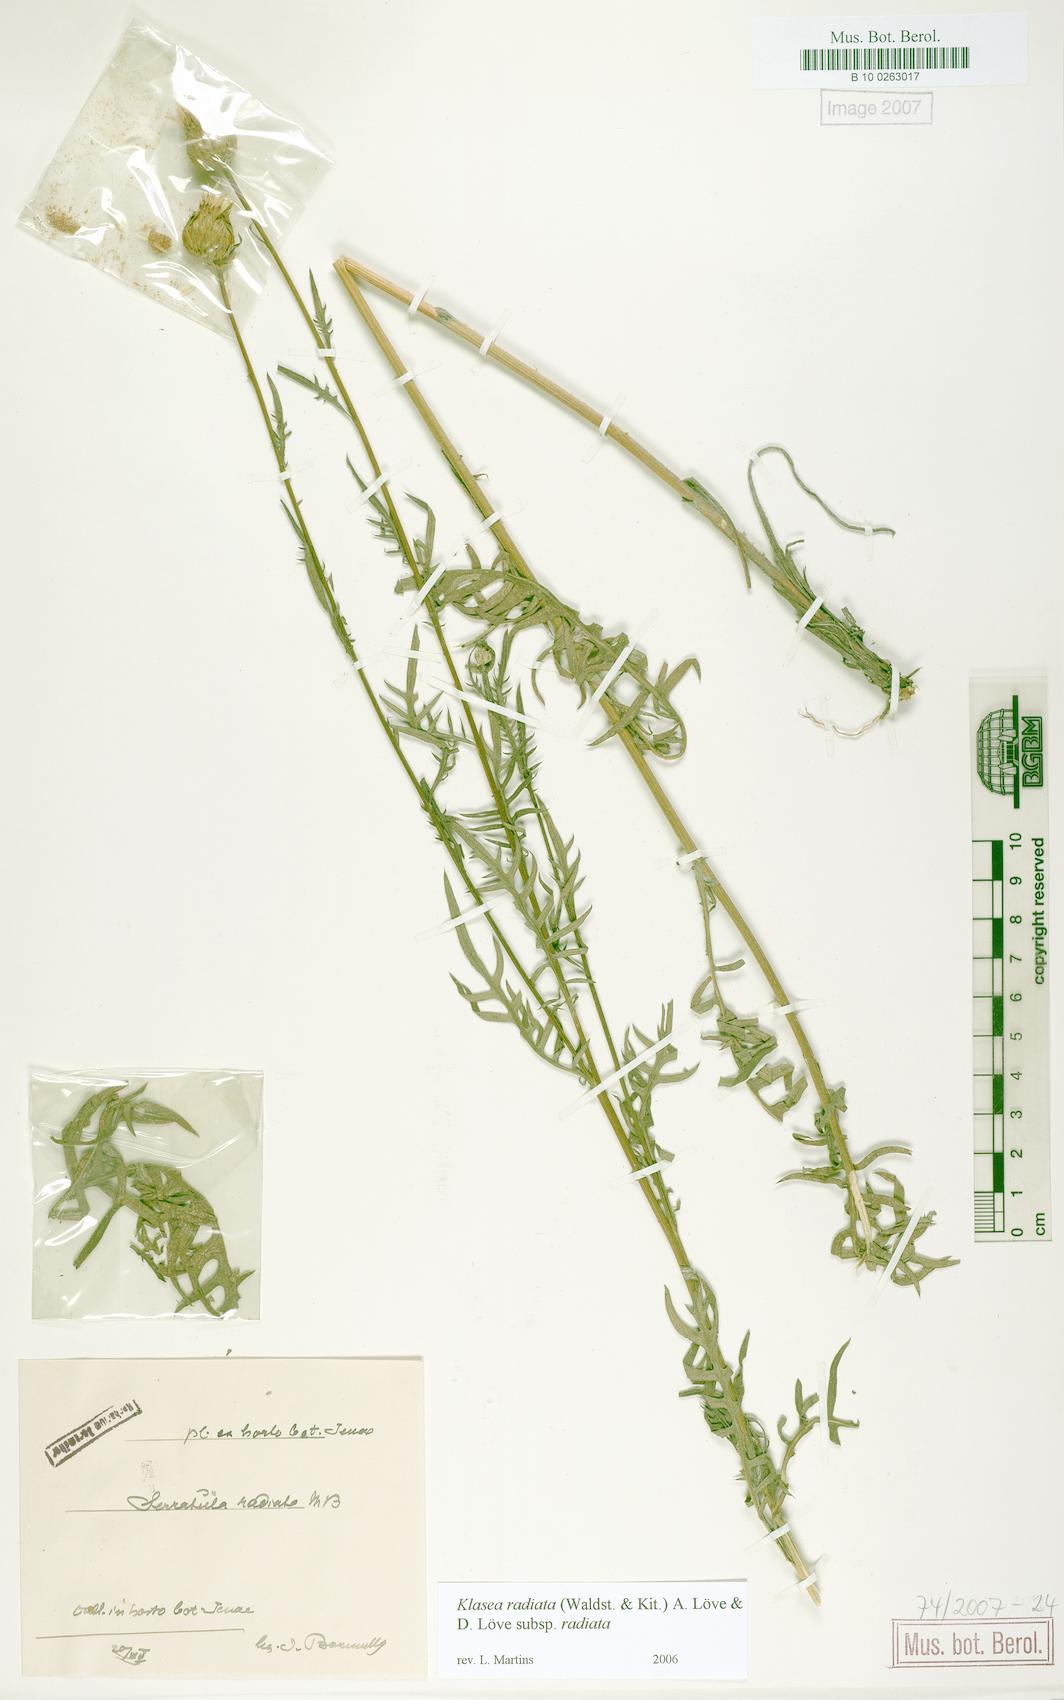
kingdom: Plantae
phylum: Tracheophyta
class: Magnoliopsida
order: Asterales
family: Asteraceae
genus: Klasea
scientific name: Klasea radiata
